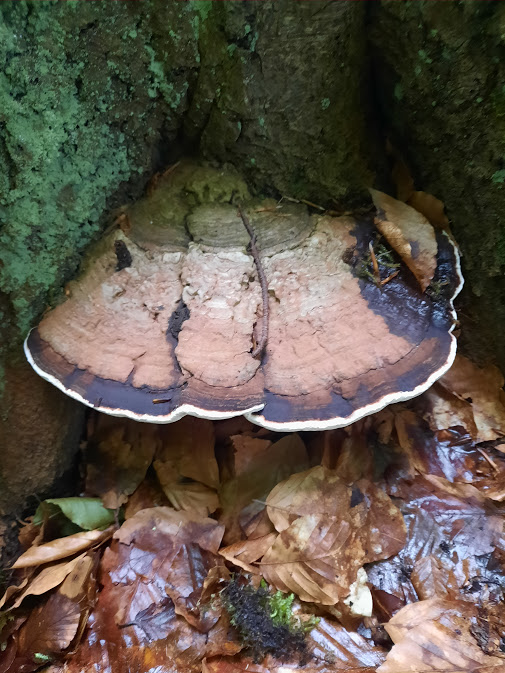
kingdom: Fungi
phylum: Basidiomycota
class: Agaricomycetes
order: Polyporales
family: Polyporaceae
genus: Ganoderma
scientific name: Ganoderma applanatum
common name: flad lakporesvamp
